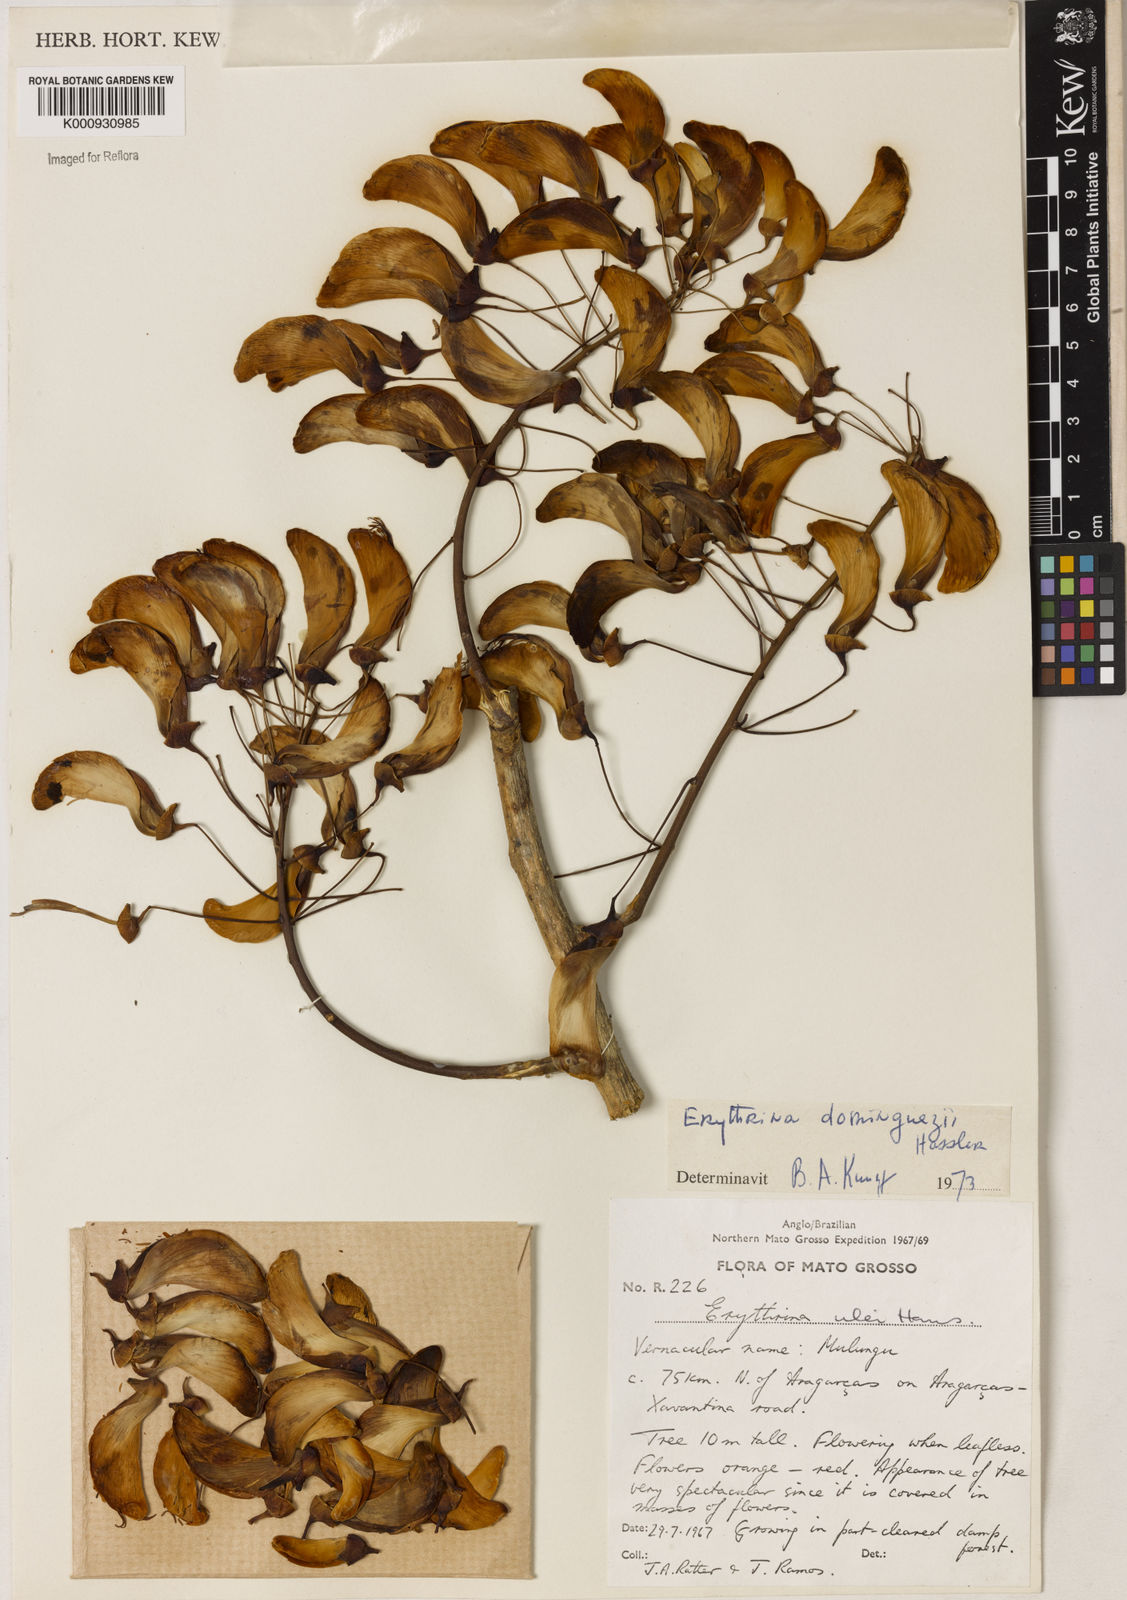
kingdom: Plantae
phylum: Tracheophyta
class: Magnoliopsida
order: Fabales
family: Fabaceae
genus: Erythrina
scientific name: Erythrina mulungu
